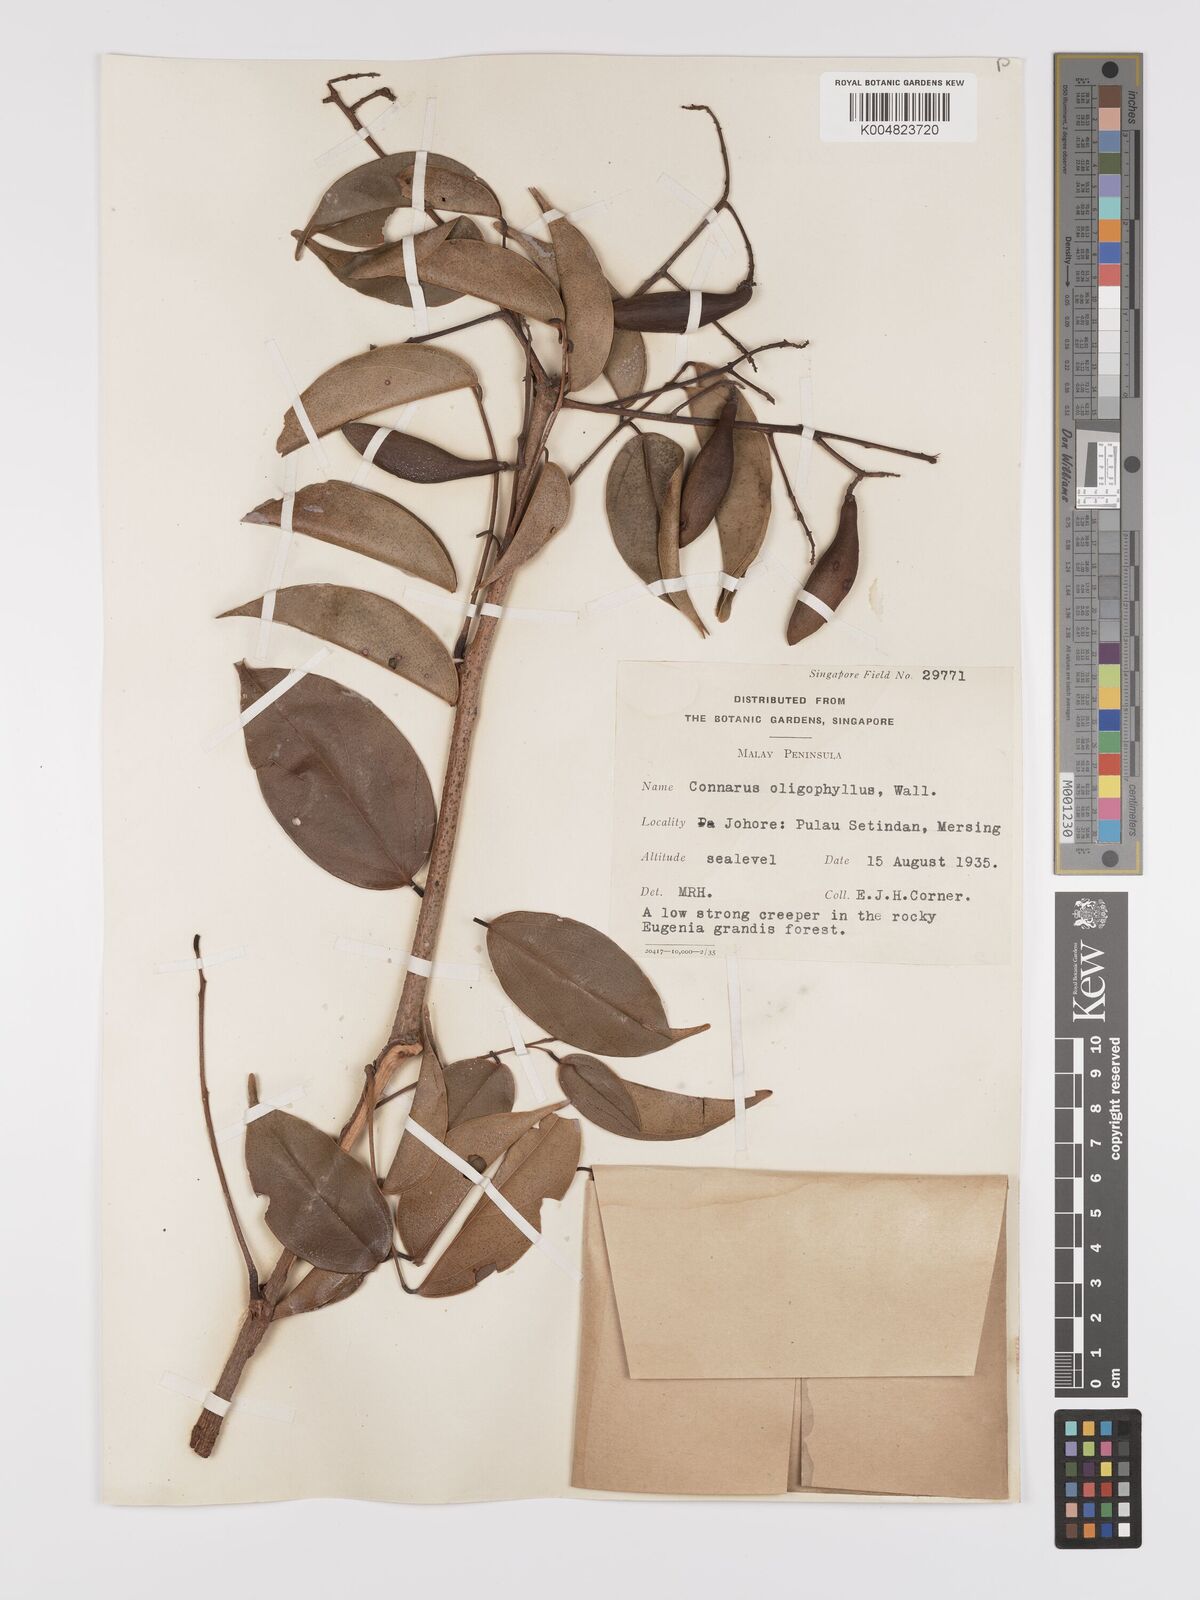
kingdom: Plantae
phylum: Tracheophyta
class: Magnoliopsida
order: Oxalidales
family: Connaraceae
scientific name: Connaraceae
